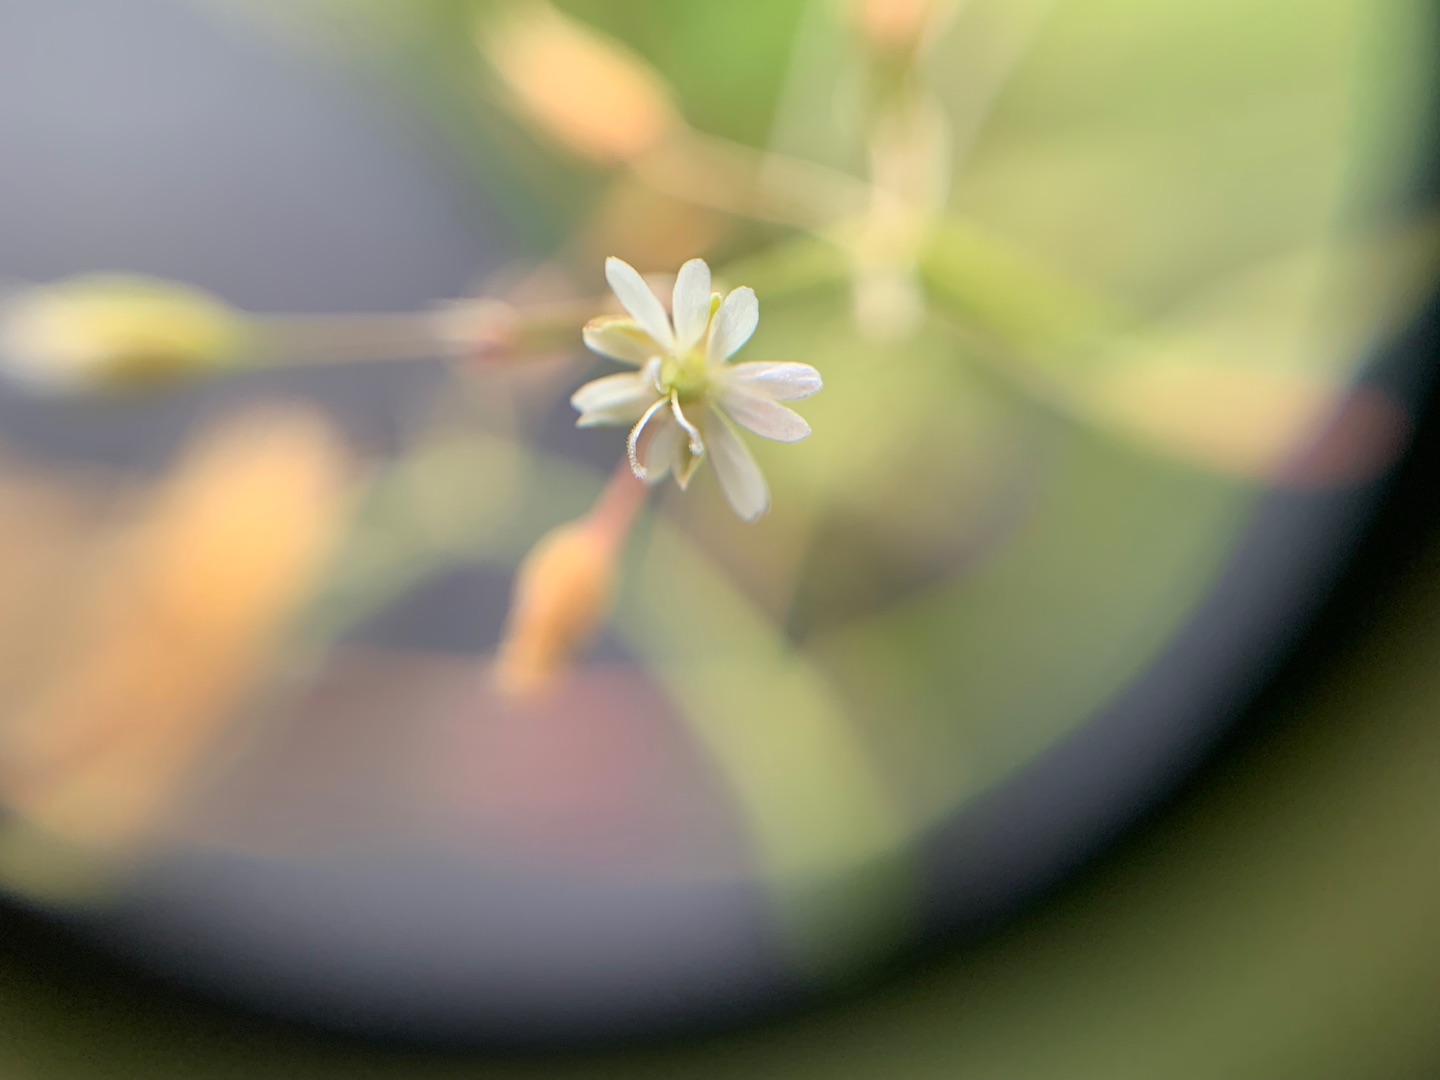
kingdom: Plantae
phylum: Tracheophyta
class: Magnoliopsida
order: Caryophyllales
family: Caryophyllaceae
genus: Stellaria
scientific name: Stellaria graminea
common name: Græsbladet fladstjerne
